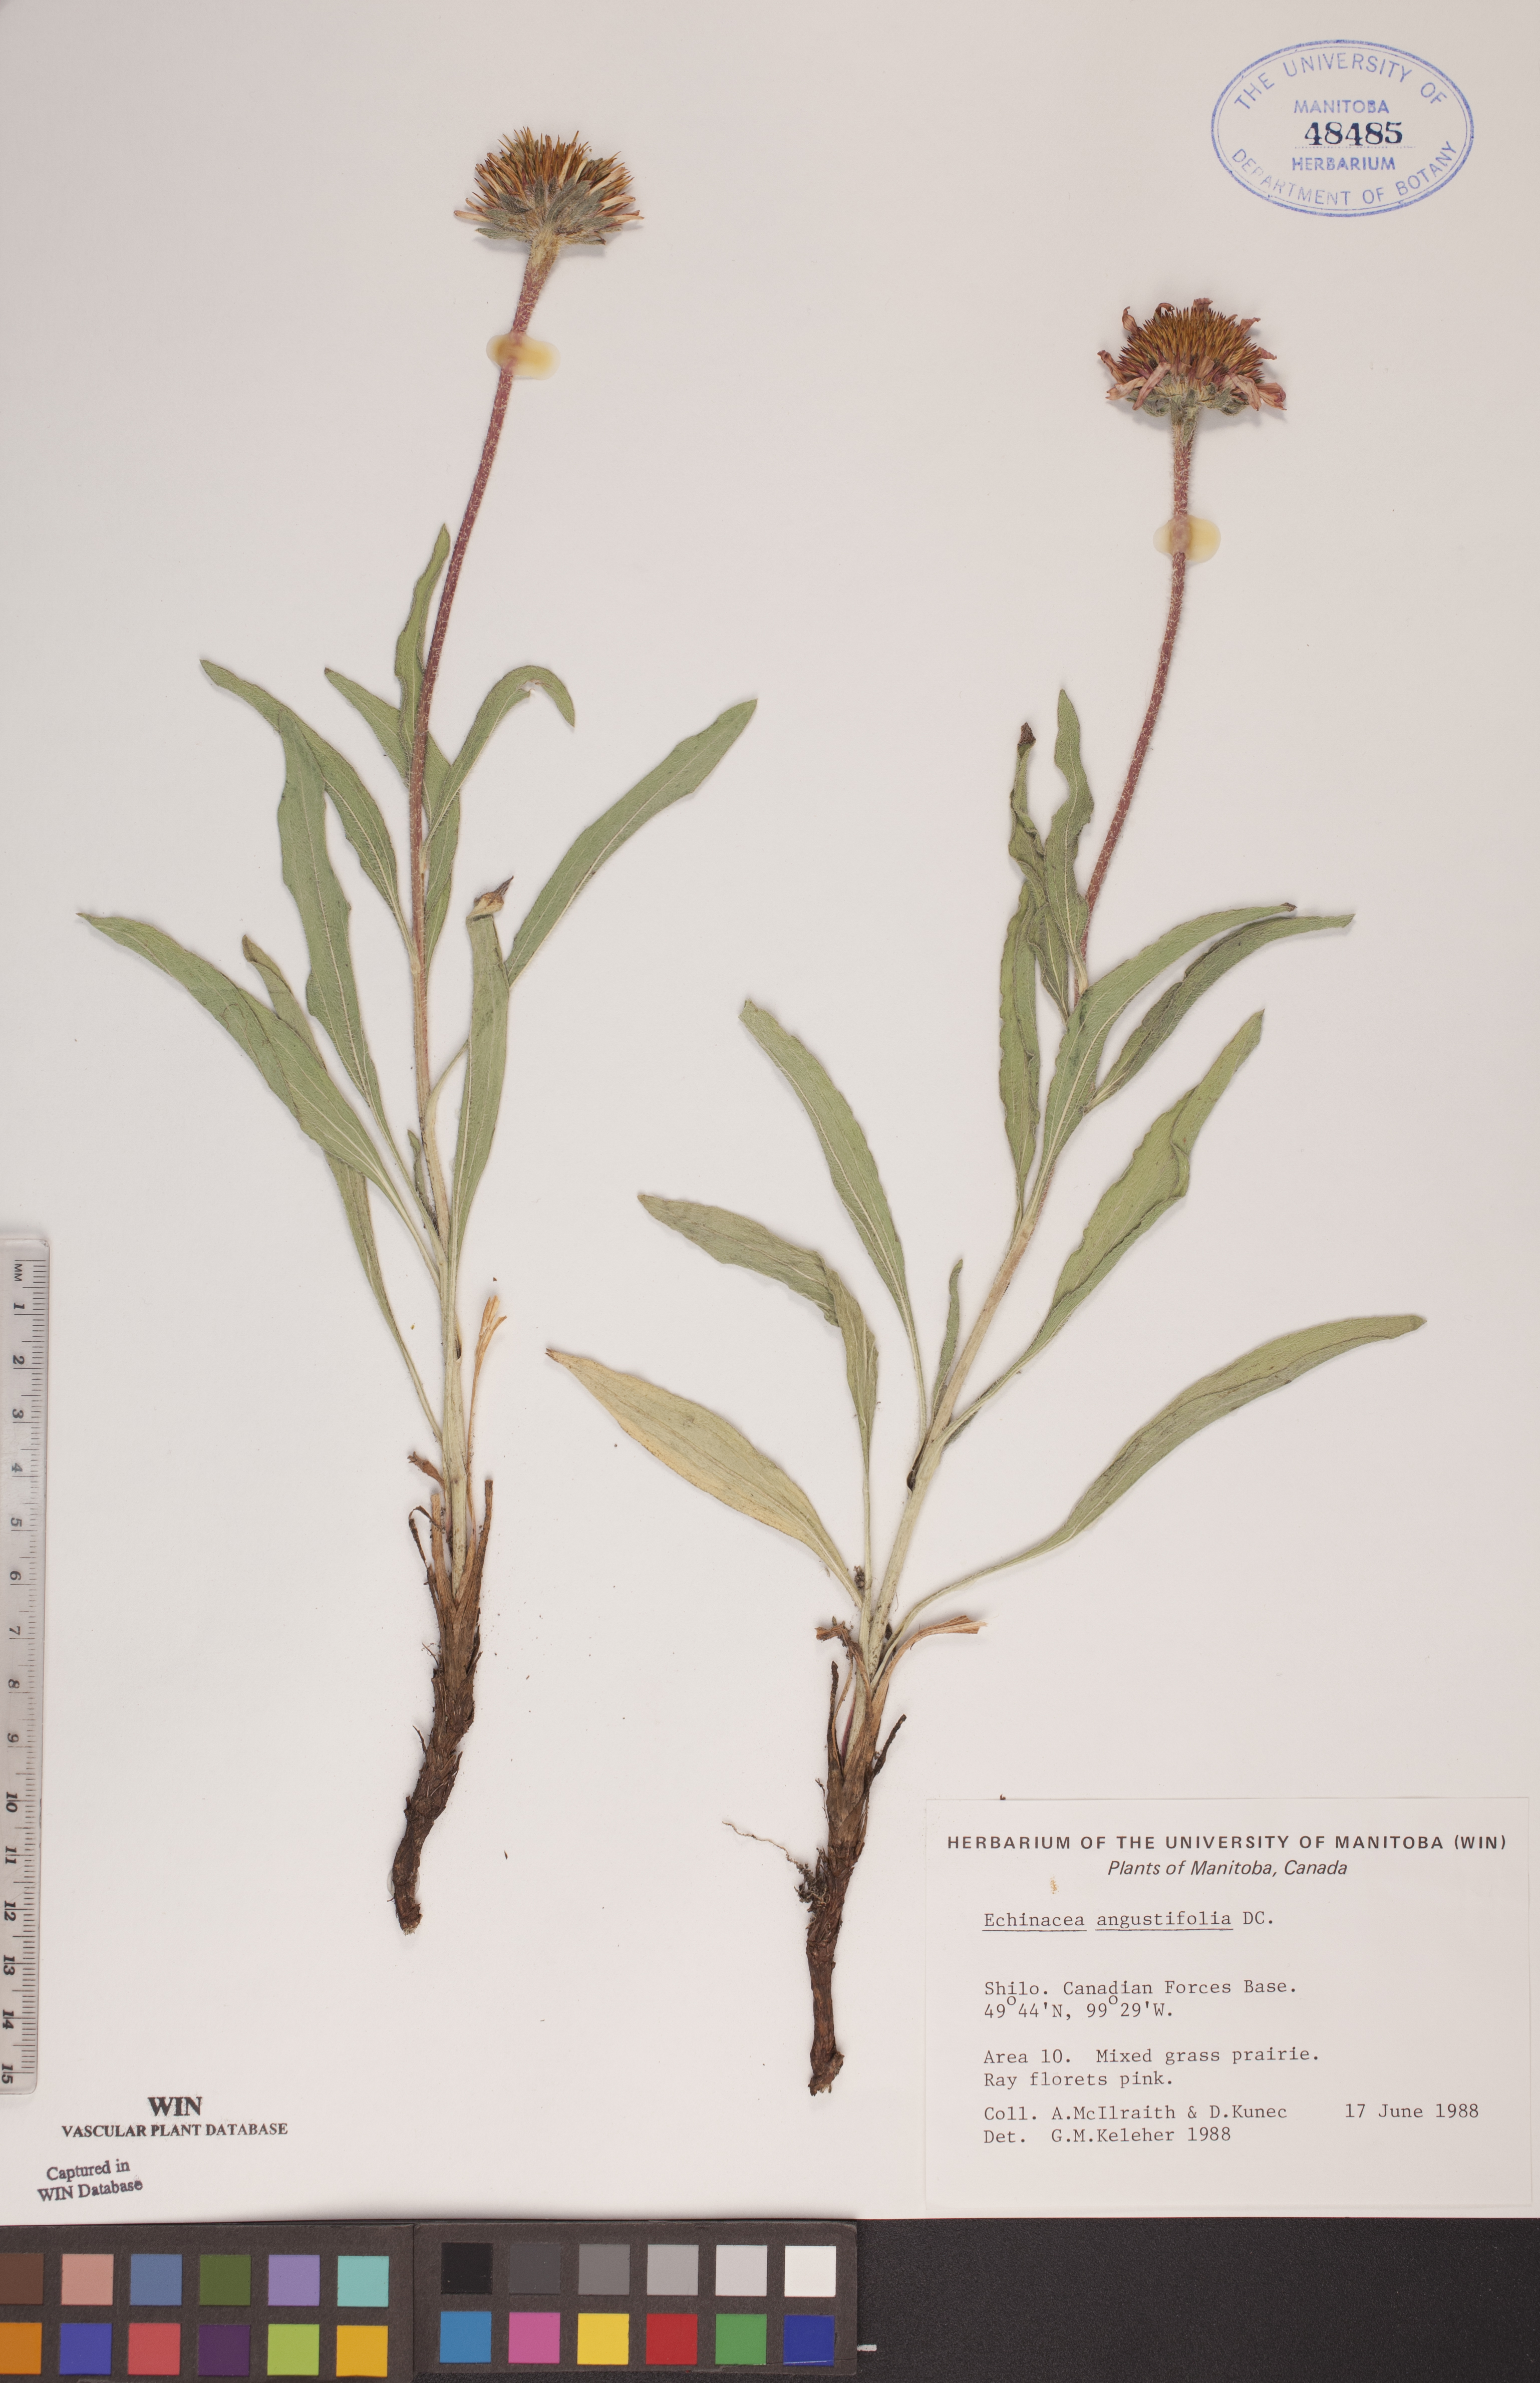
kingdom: Plantae
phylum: Tracheophyta
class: Magnoliopsida
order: Asterales
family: Asteraceae
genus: Echinacea
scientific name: Echinacea angustifolia
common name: Black-sampson echinacea
